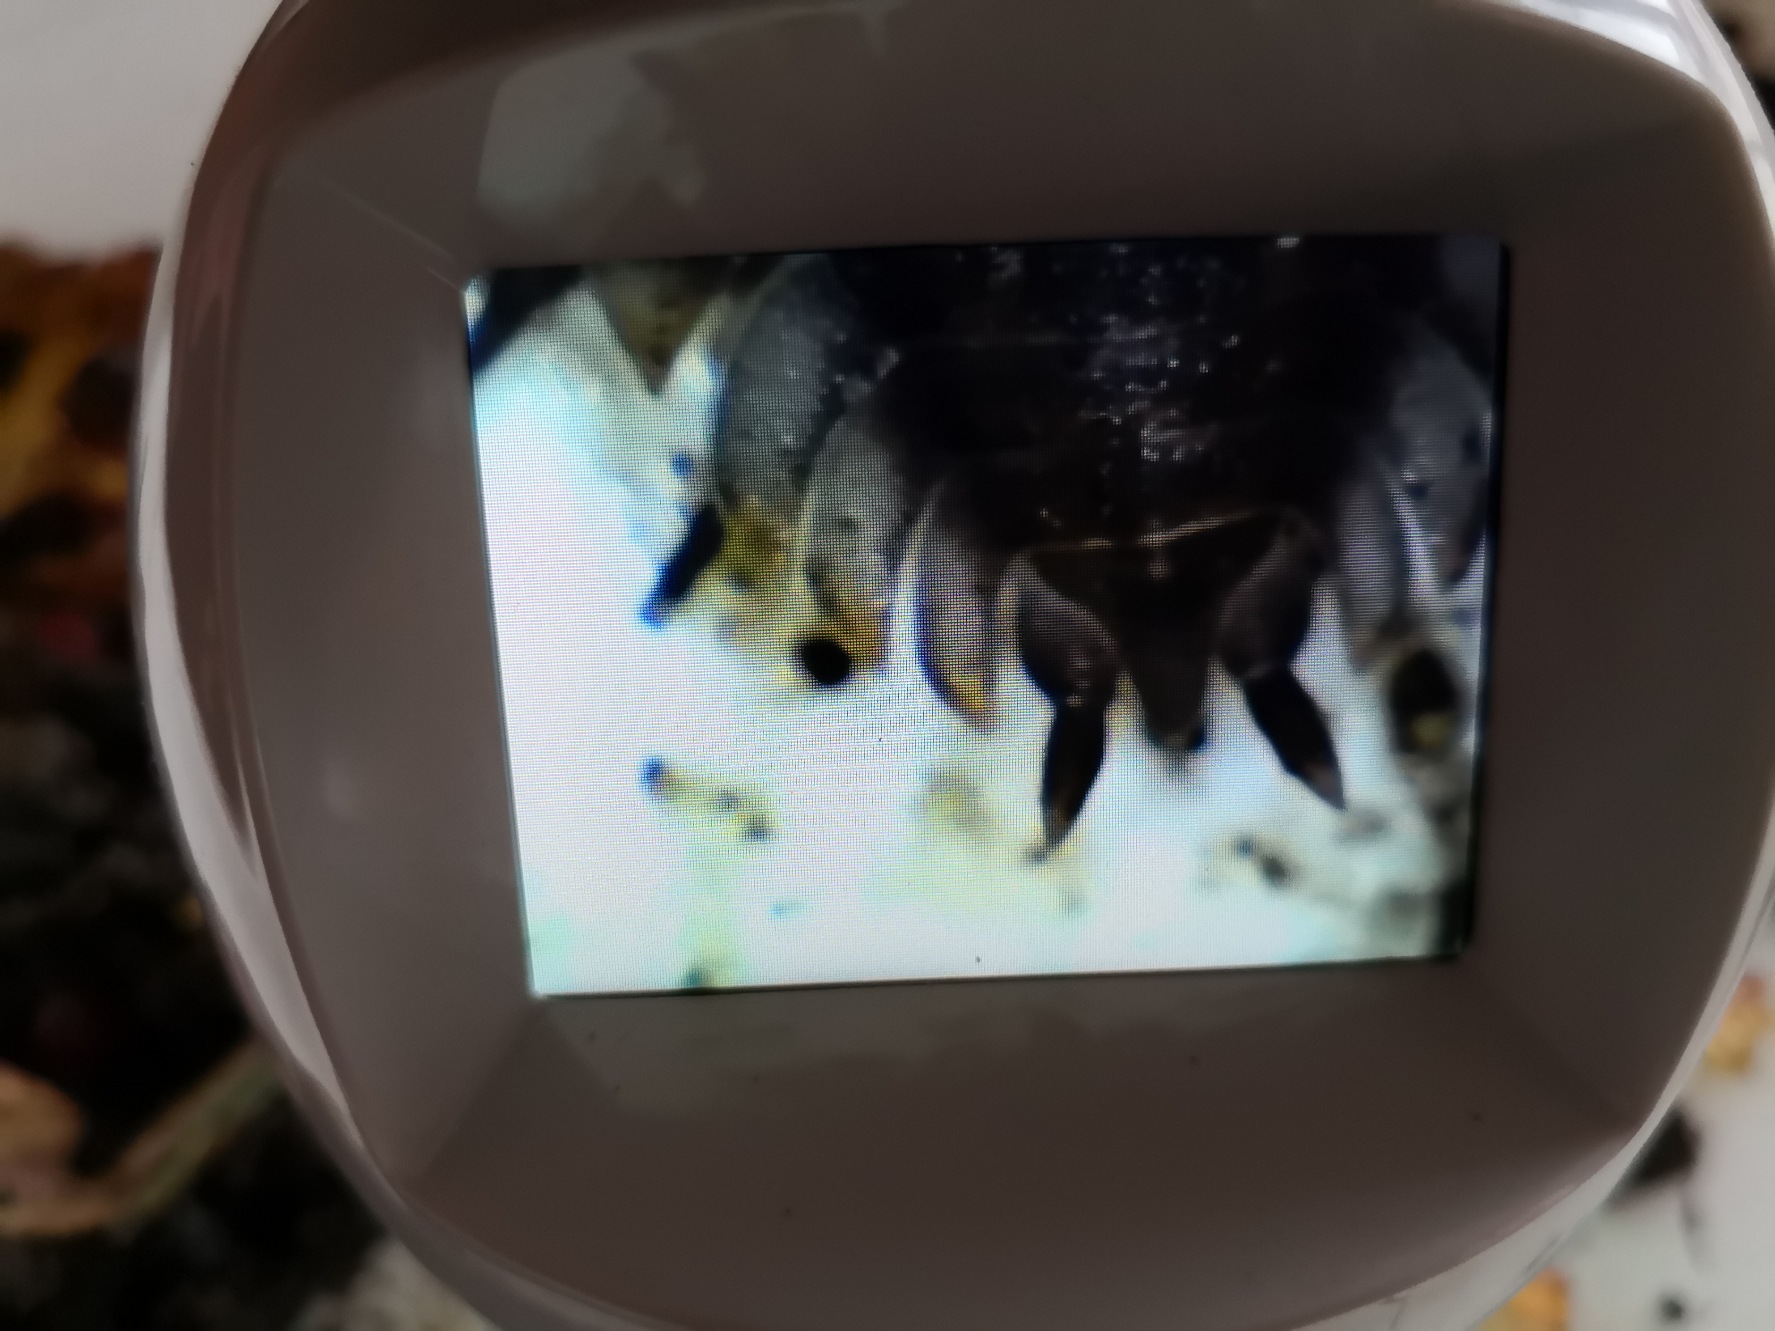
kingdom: Animalia
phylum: Arthropoda
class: Malacostraca
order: Isopoda
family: Oniscidae
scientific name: Oniscidae
